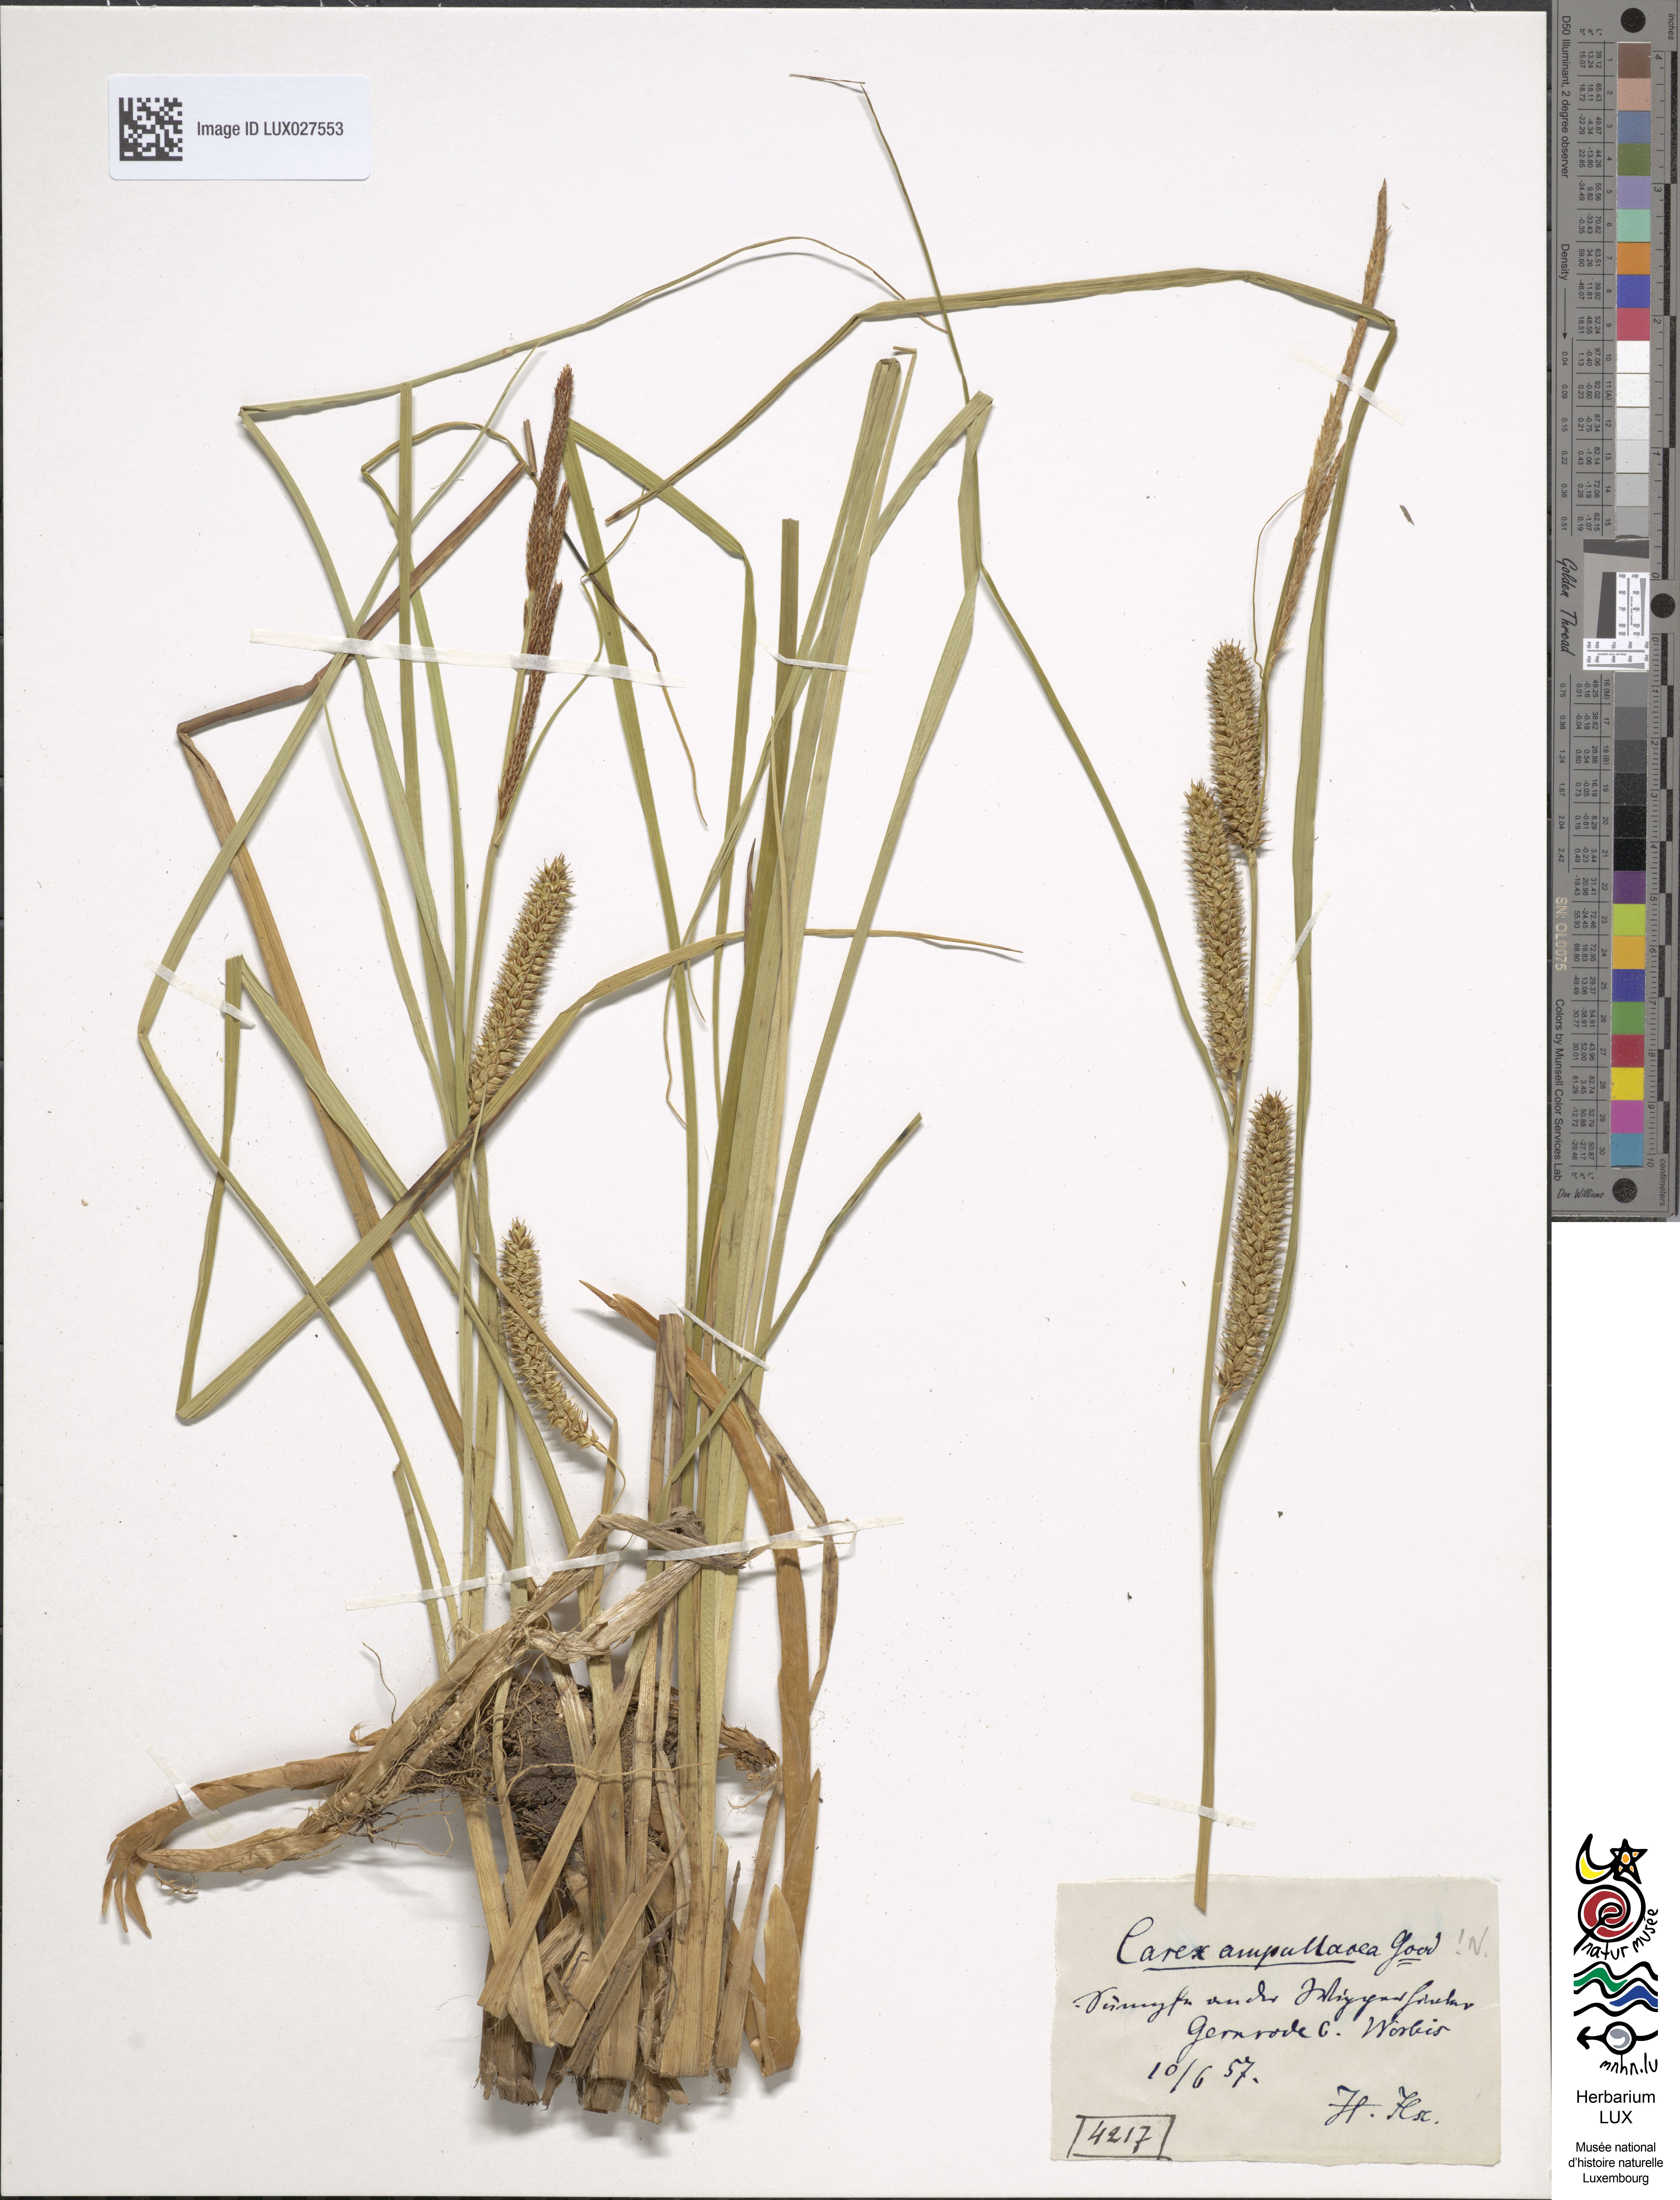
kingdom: Plantae
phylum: Tracheophyta
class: Liliopsida
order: Poales
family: Cyperaceae
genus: Carex
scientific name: Carex rostrata
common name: Bottle sedge
